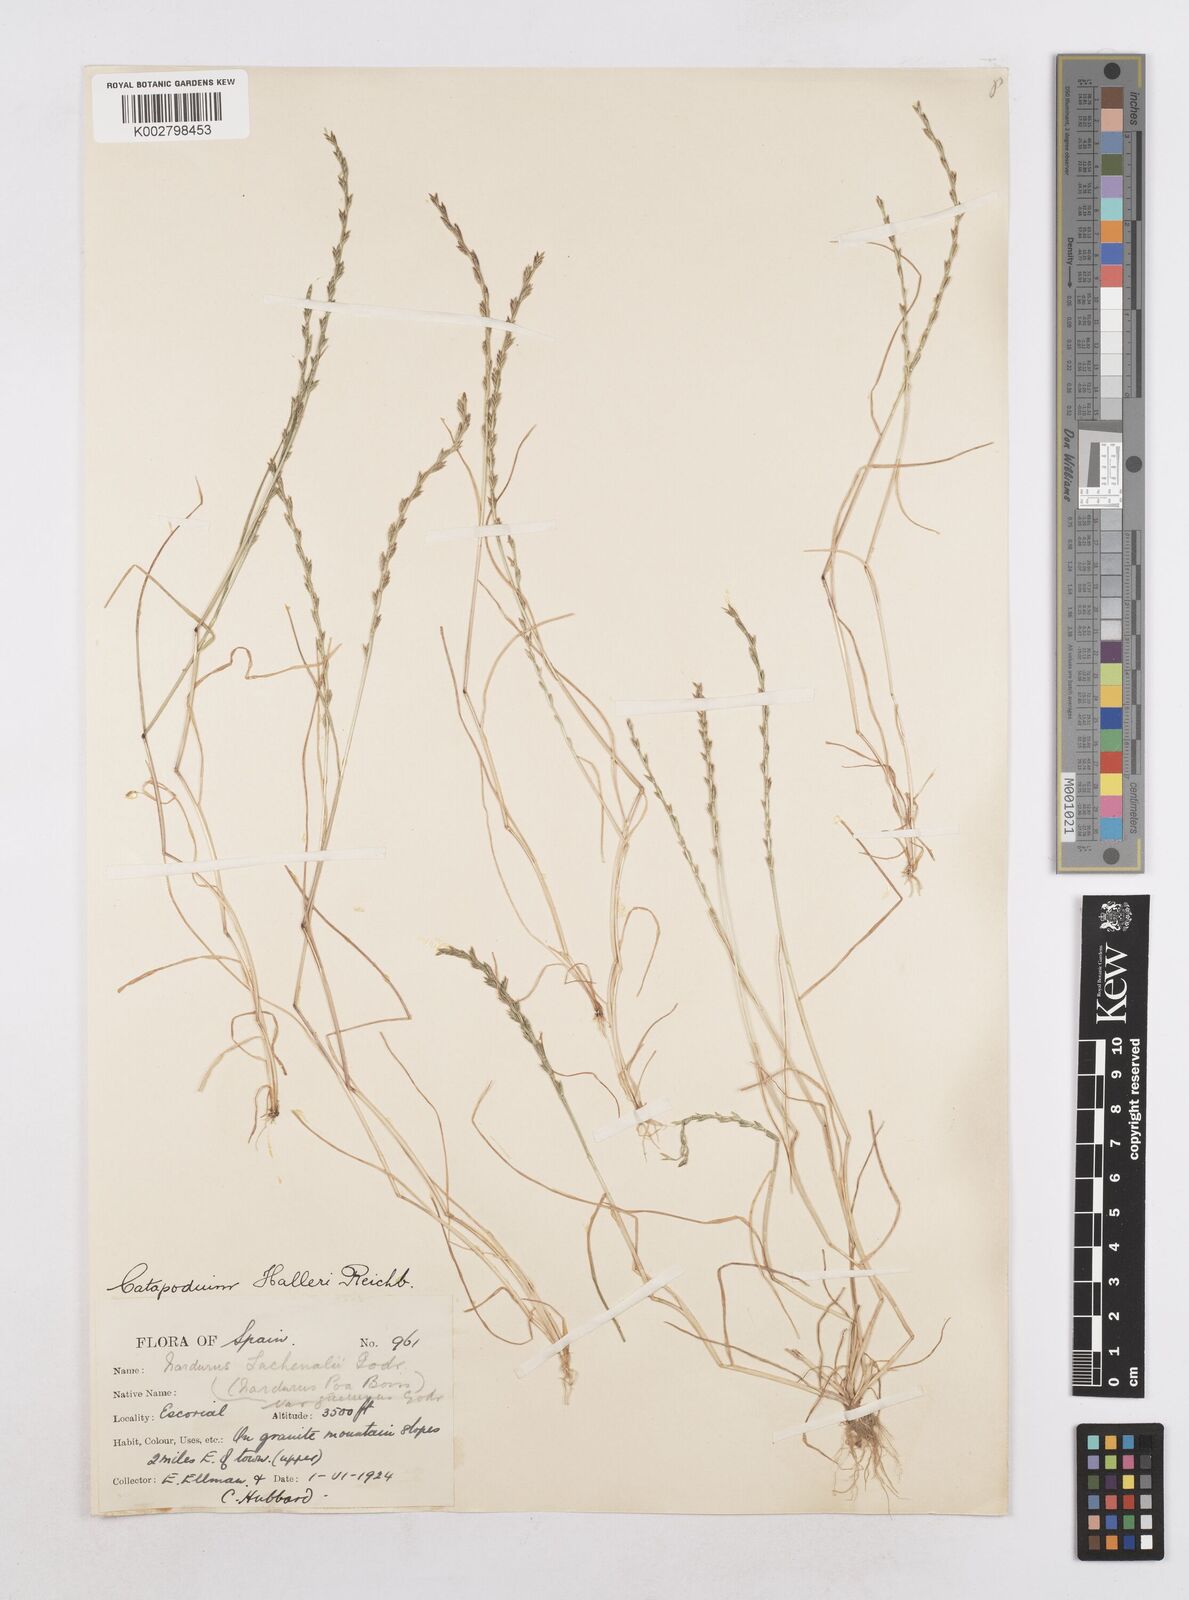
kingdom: Plantae
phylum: Tracheophyta
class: Liliopsida
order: Poales
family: Poaceae
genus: Festuca
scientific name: Festuca lachenalii
